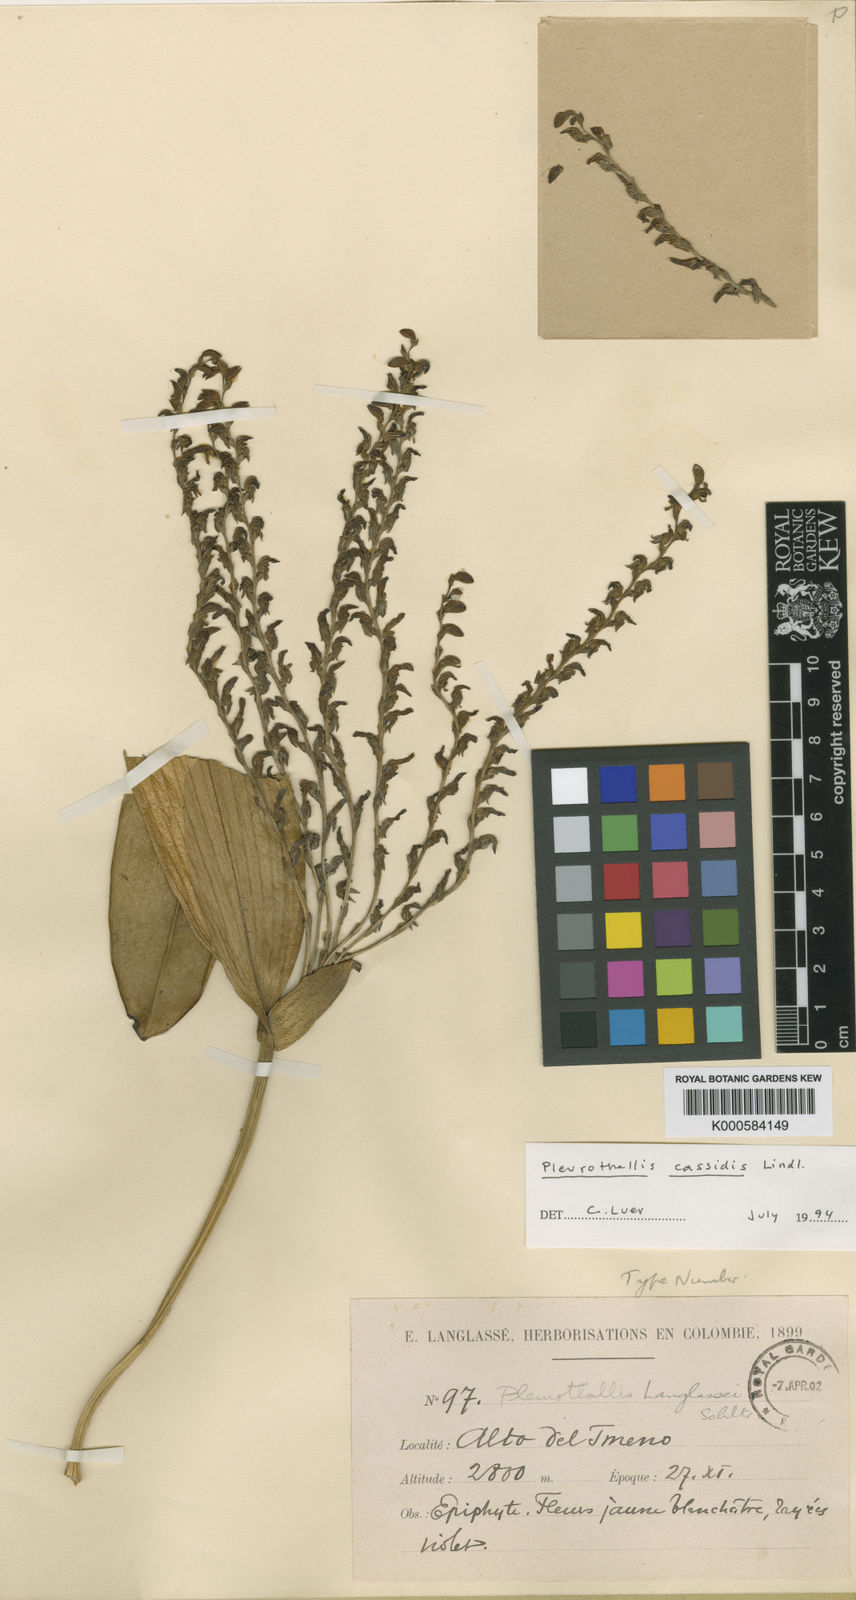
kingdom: Plantae
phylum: Tracheophyta
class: Liliopsida
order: Asparagales
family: Orchidaceae
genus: Stelis
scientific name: Stelis cassidis
